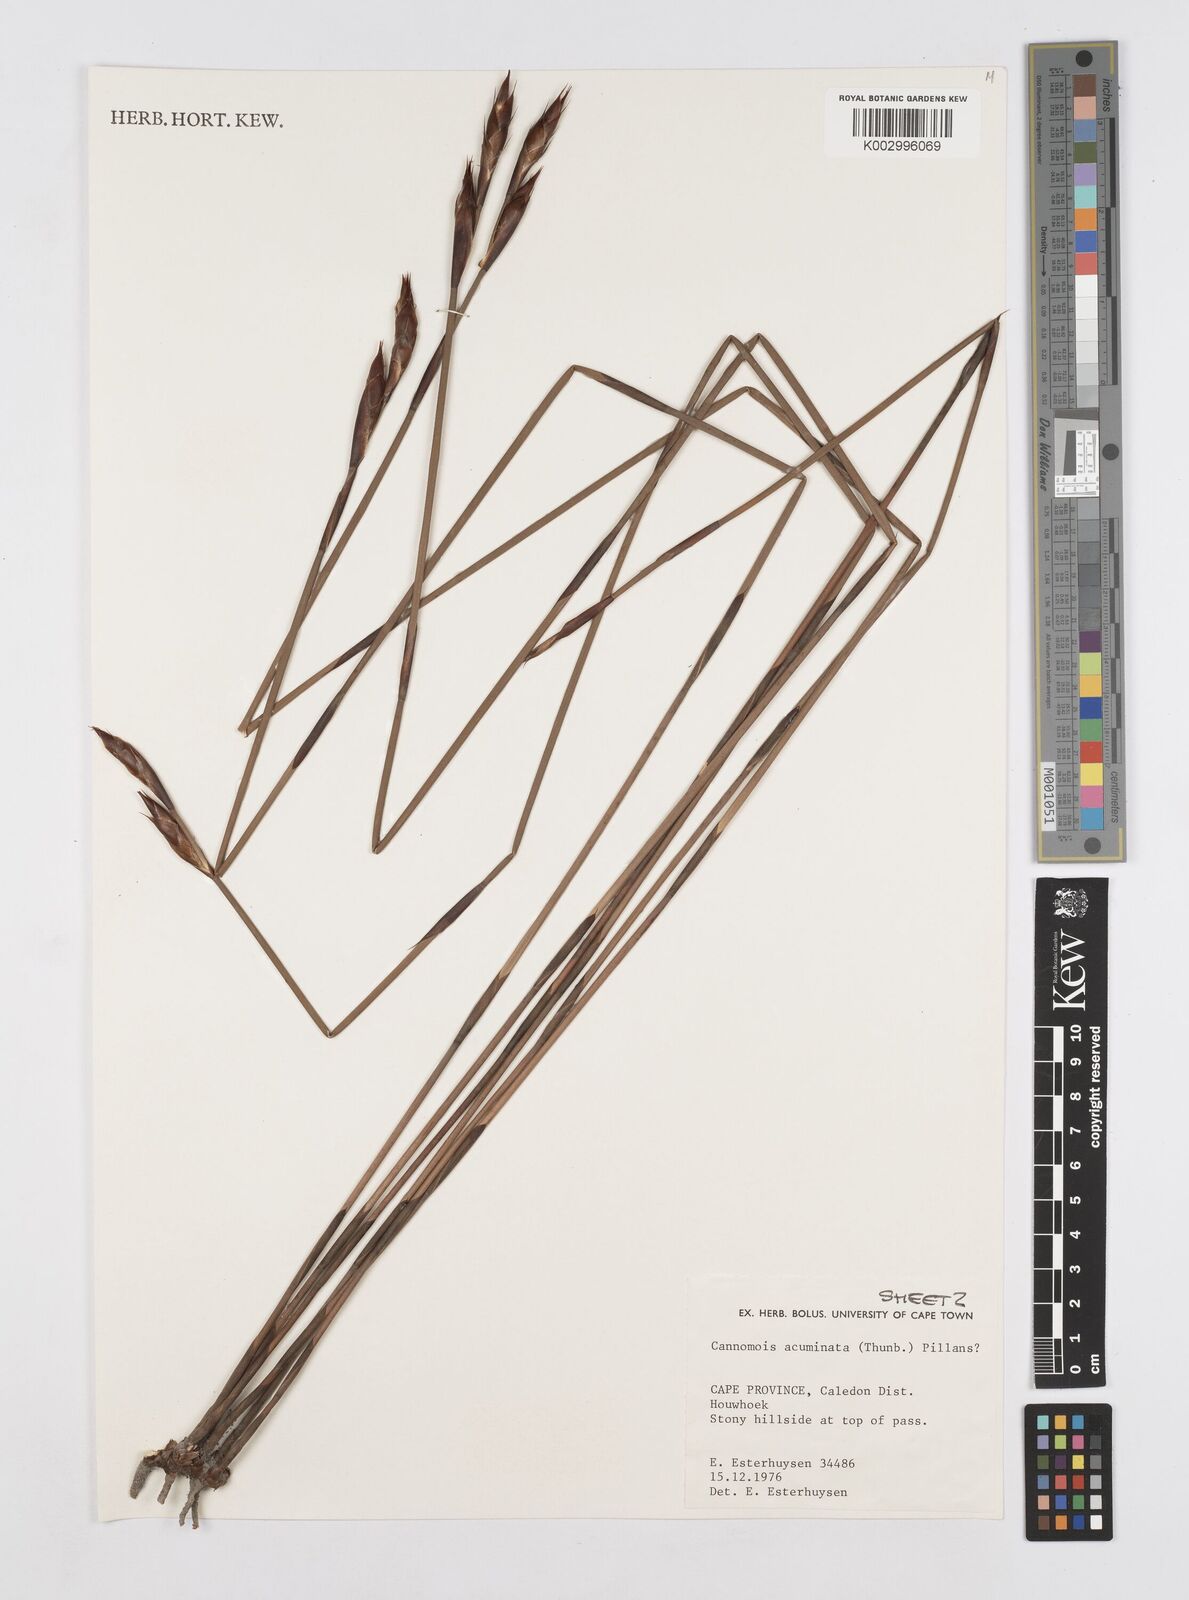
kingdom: Plantae
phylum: Tracheophyta
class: Liliopsida
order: Poales
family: Restionaceae
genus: Cannomois
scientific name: Cannomois parviflora
